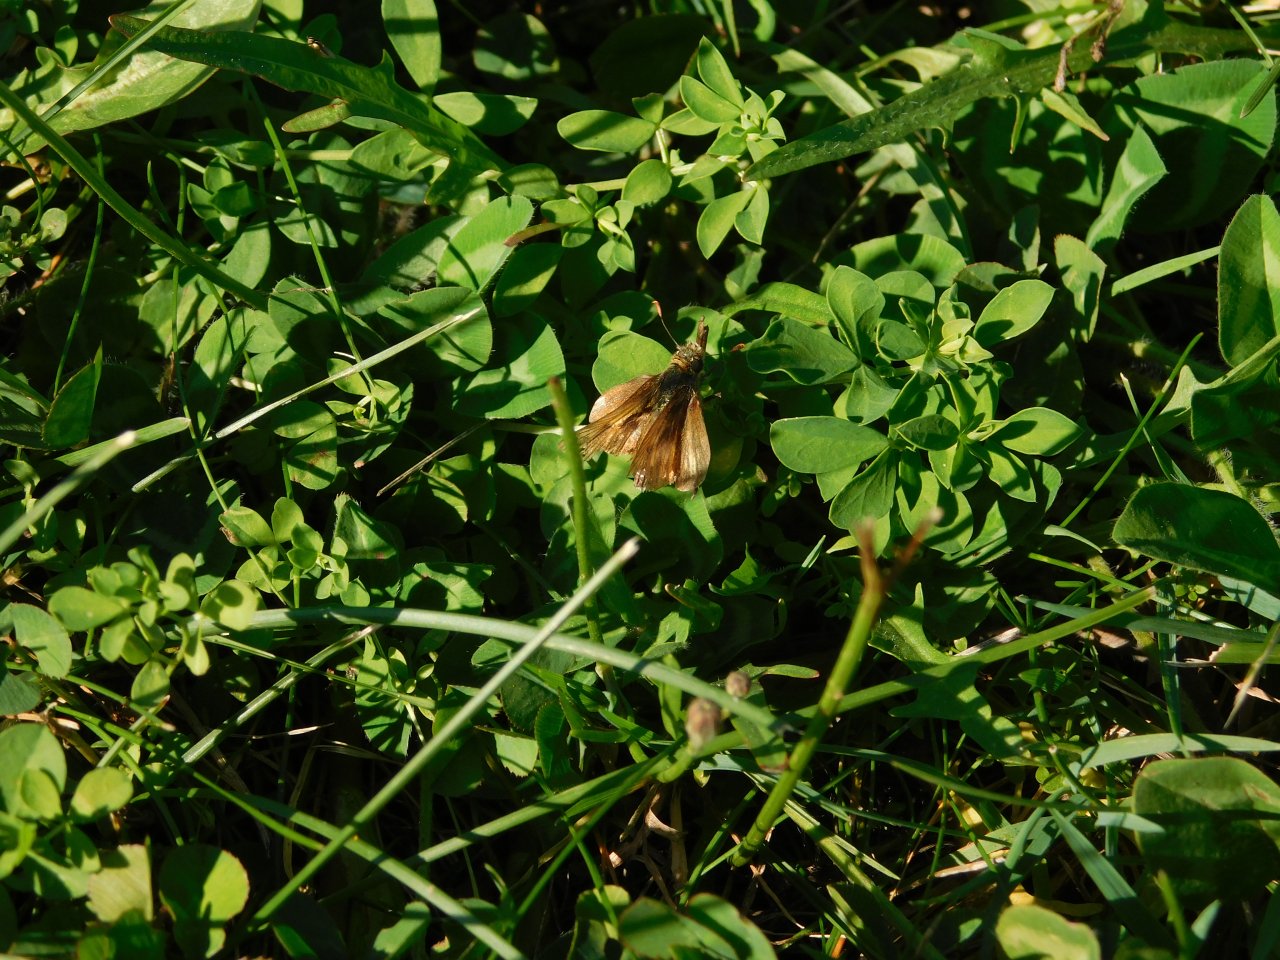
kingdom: Animalia
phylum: Arthropoda
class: Insecta
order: Lepidoptera
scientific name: Lepidoptera
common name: Butterflies
